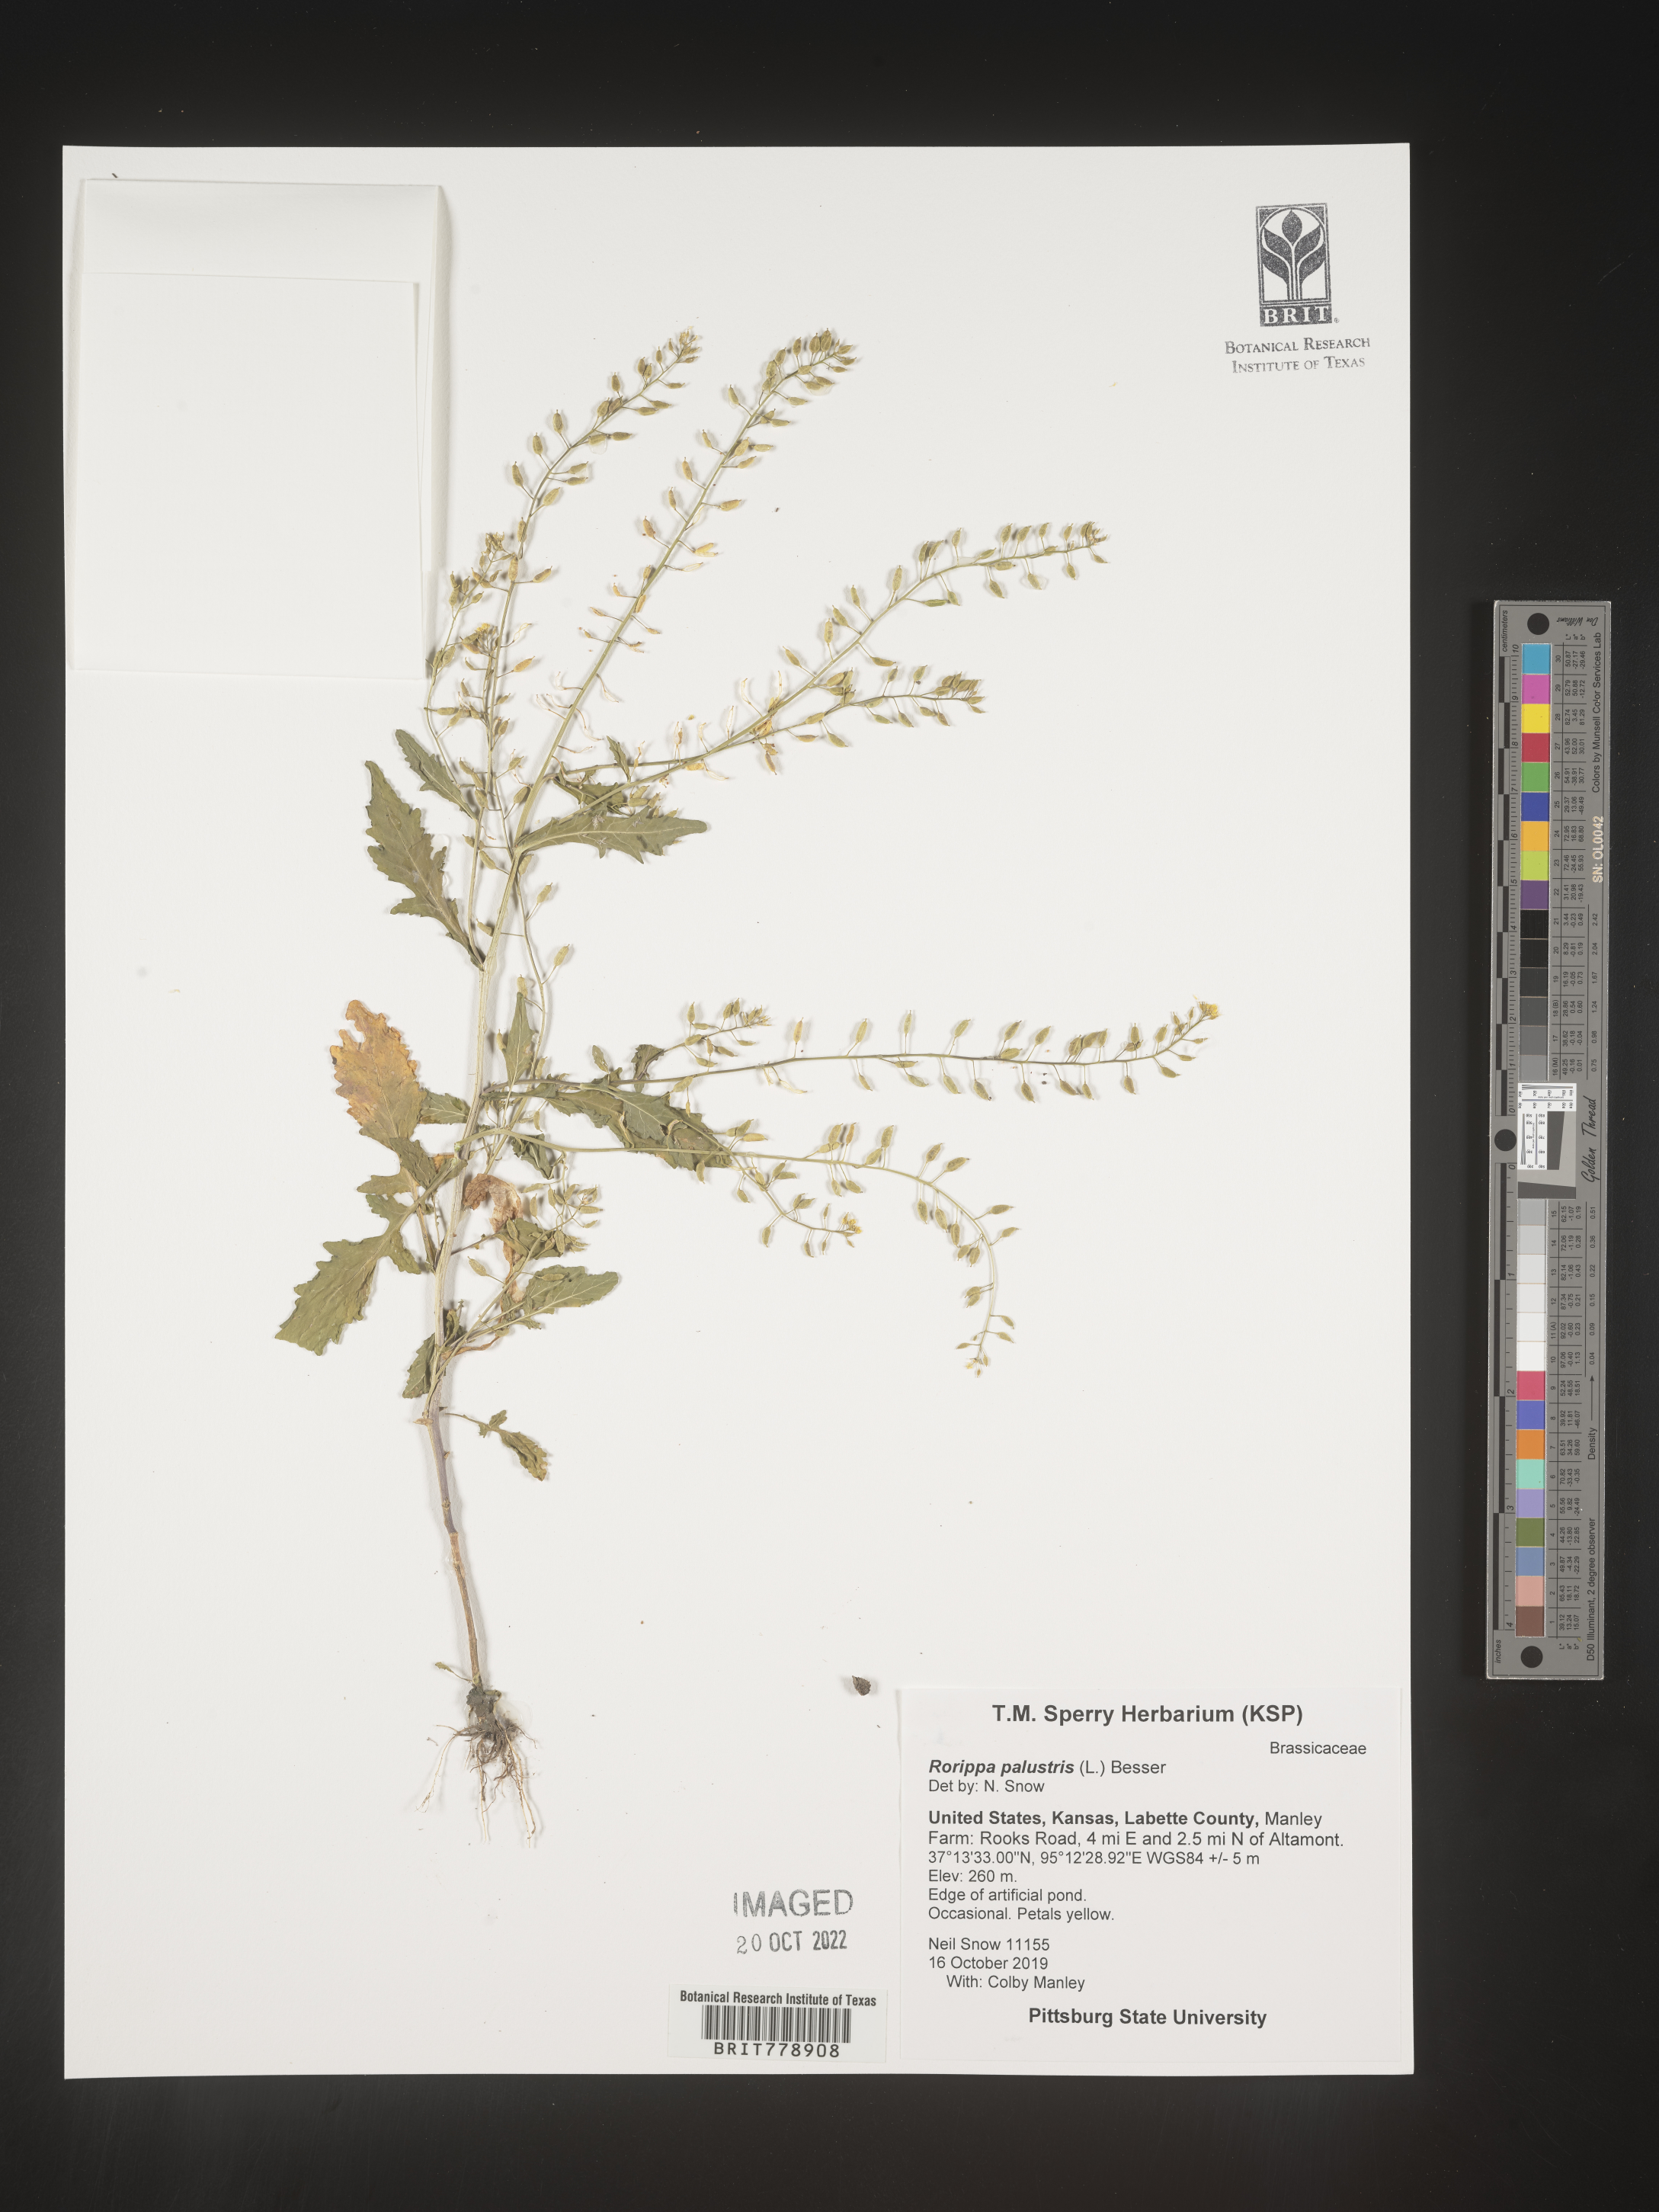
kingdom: Plantae
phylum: Tracheophyta
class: Magnoliopsida
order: Brassicales
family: Brassicaceae
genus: Rorippa
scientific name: Rorippa palustris
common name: Marsh yellow-cress
